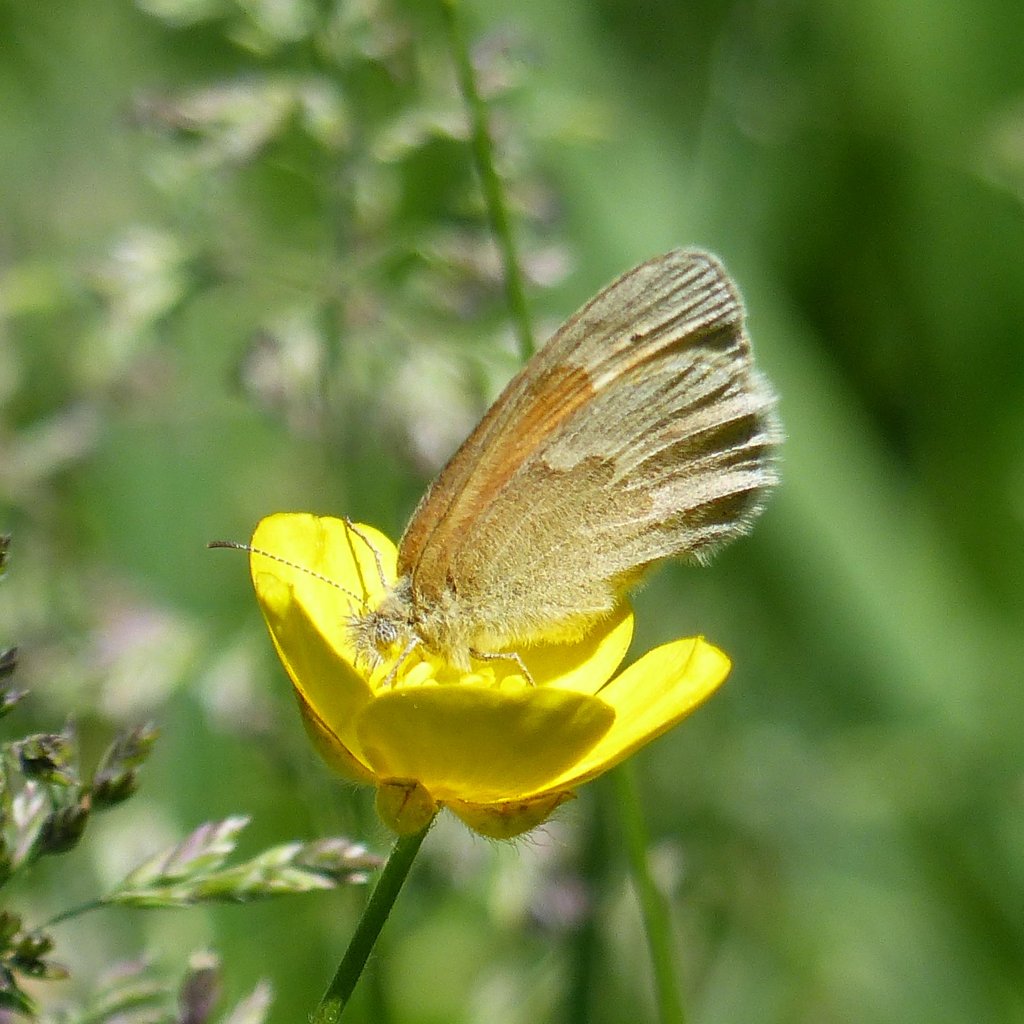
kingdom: Animalia
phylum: Arthropoda
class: Insecta
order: Lepidoptera
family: Nymphalidae
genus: Coenonympha
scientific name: Coenonympha tullia
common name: Large Heath
